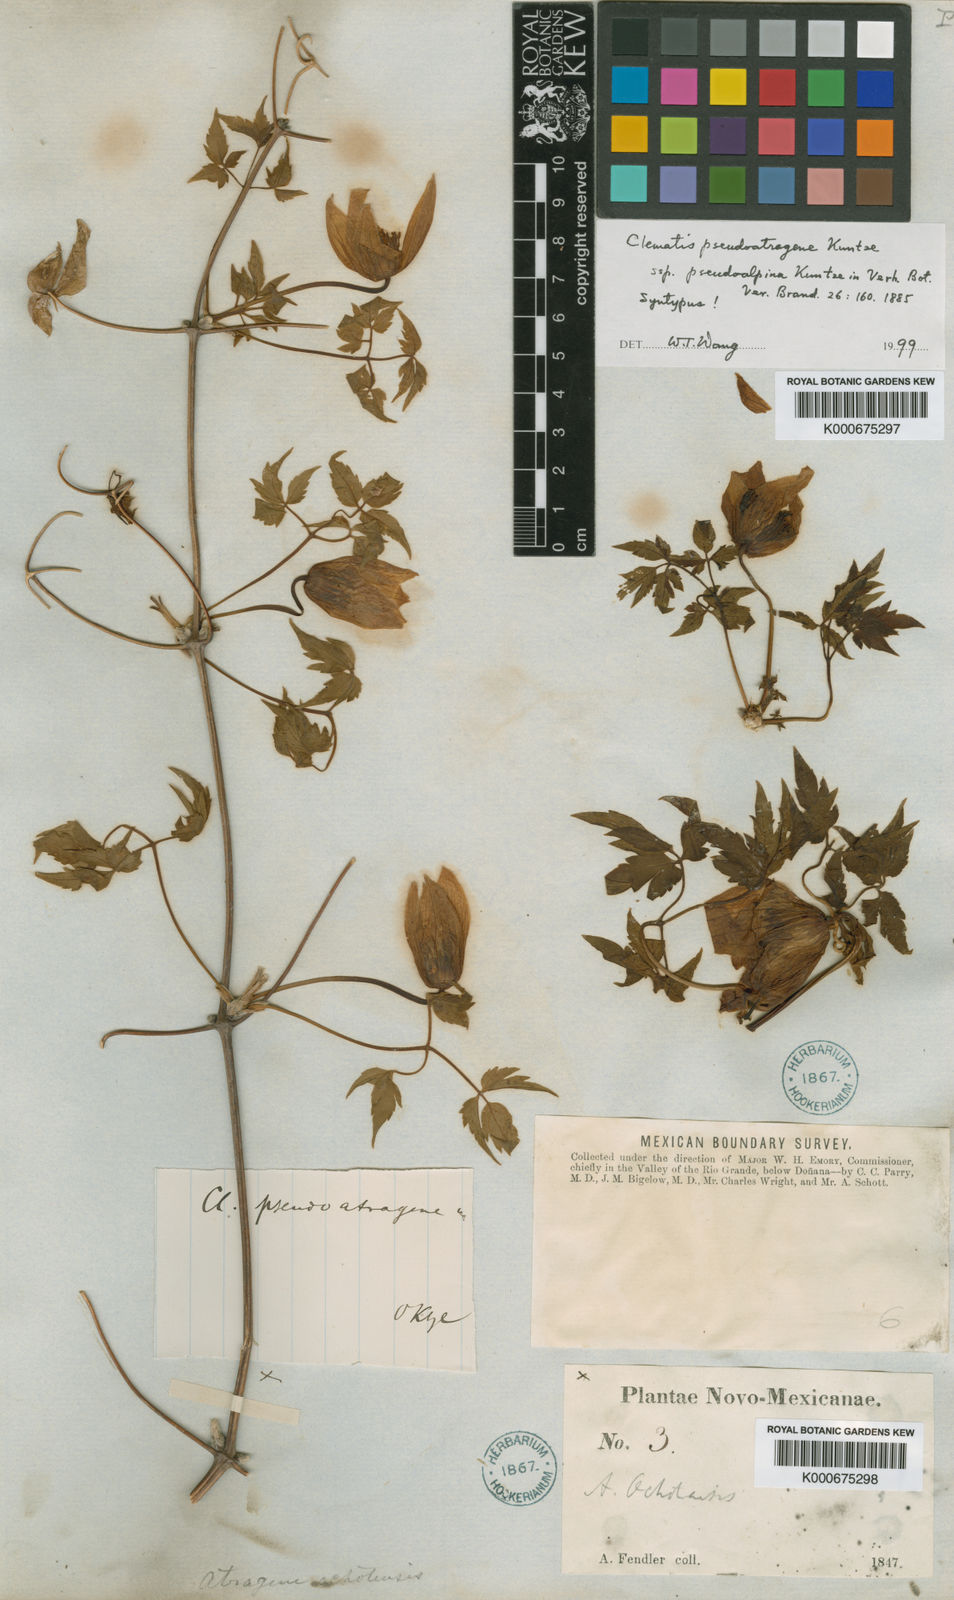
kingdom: Plantae
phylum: Tracheophyta
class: Magnoliopsida
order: Ranunculales
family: Ranunculaceae
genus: Clematis
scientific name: Clematis ochotensis
